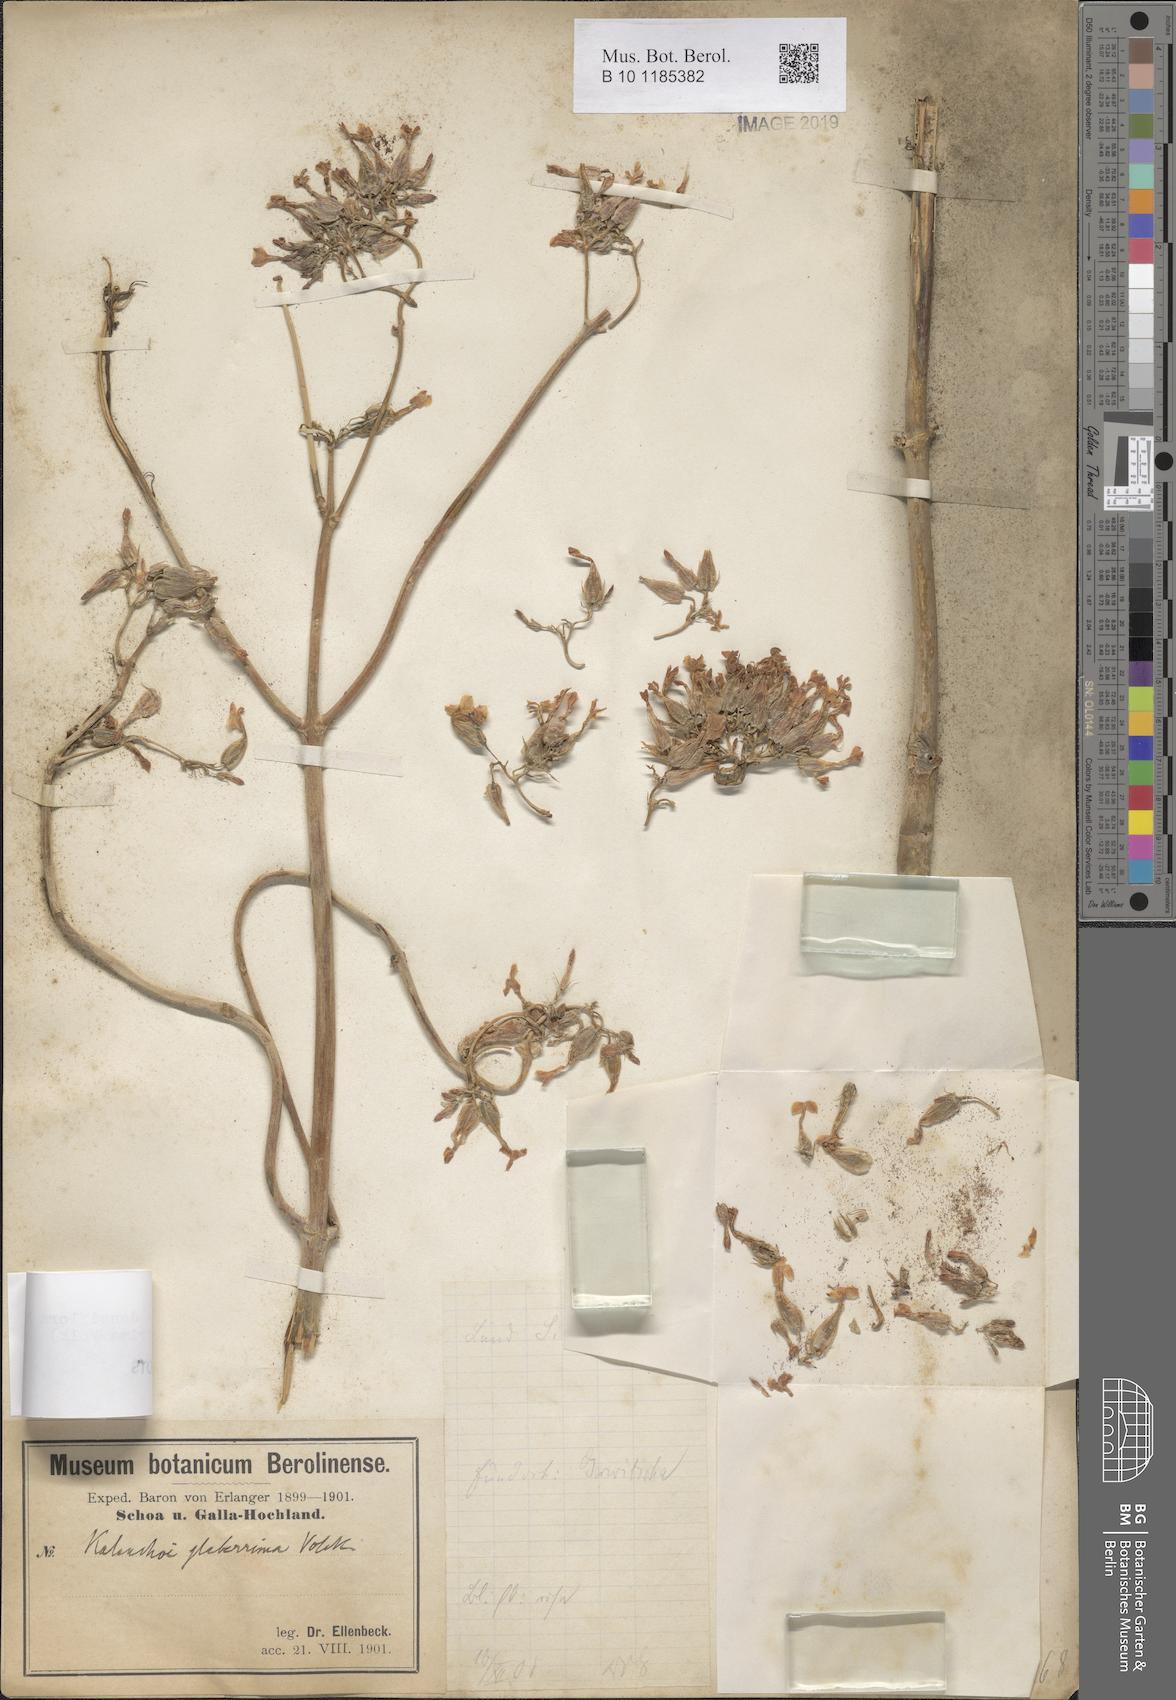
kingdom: Plantae
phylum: Tracheophyta
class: Magnoliopsida
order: Saxifragales
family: Crassulaceae
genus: Kalanchoe
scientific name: Kalanchoe densiflora
